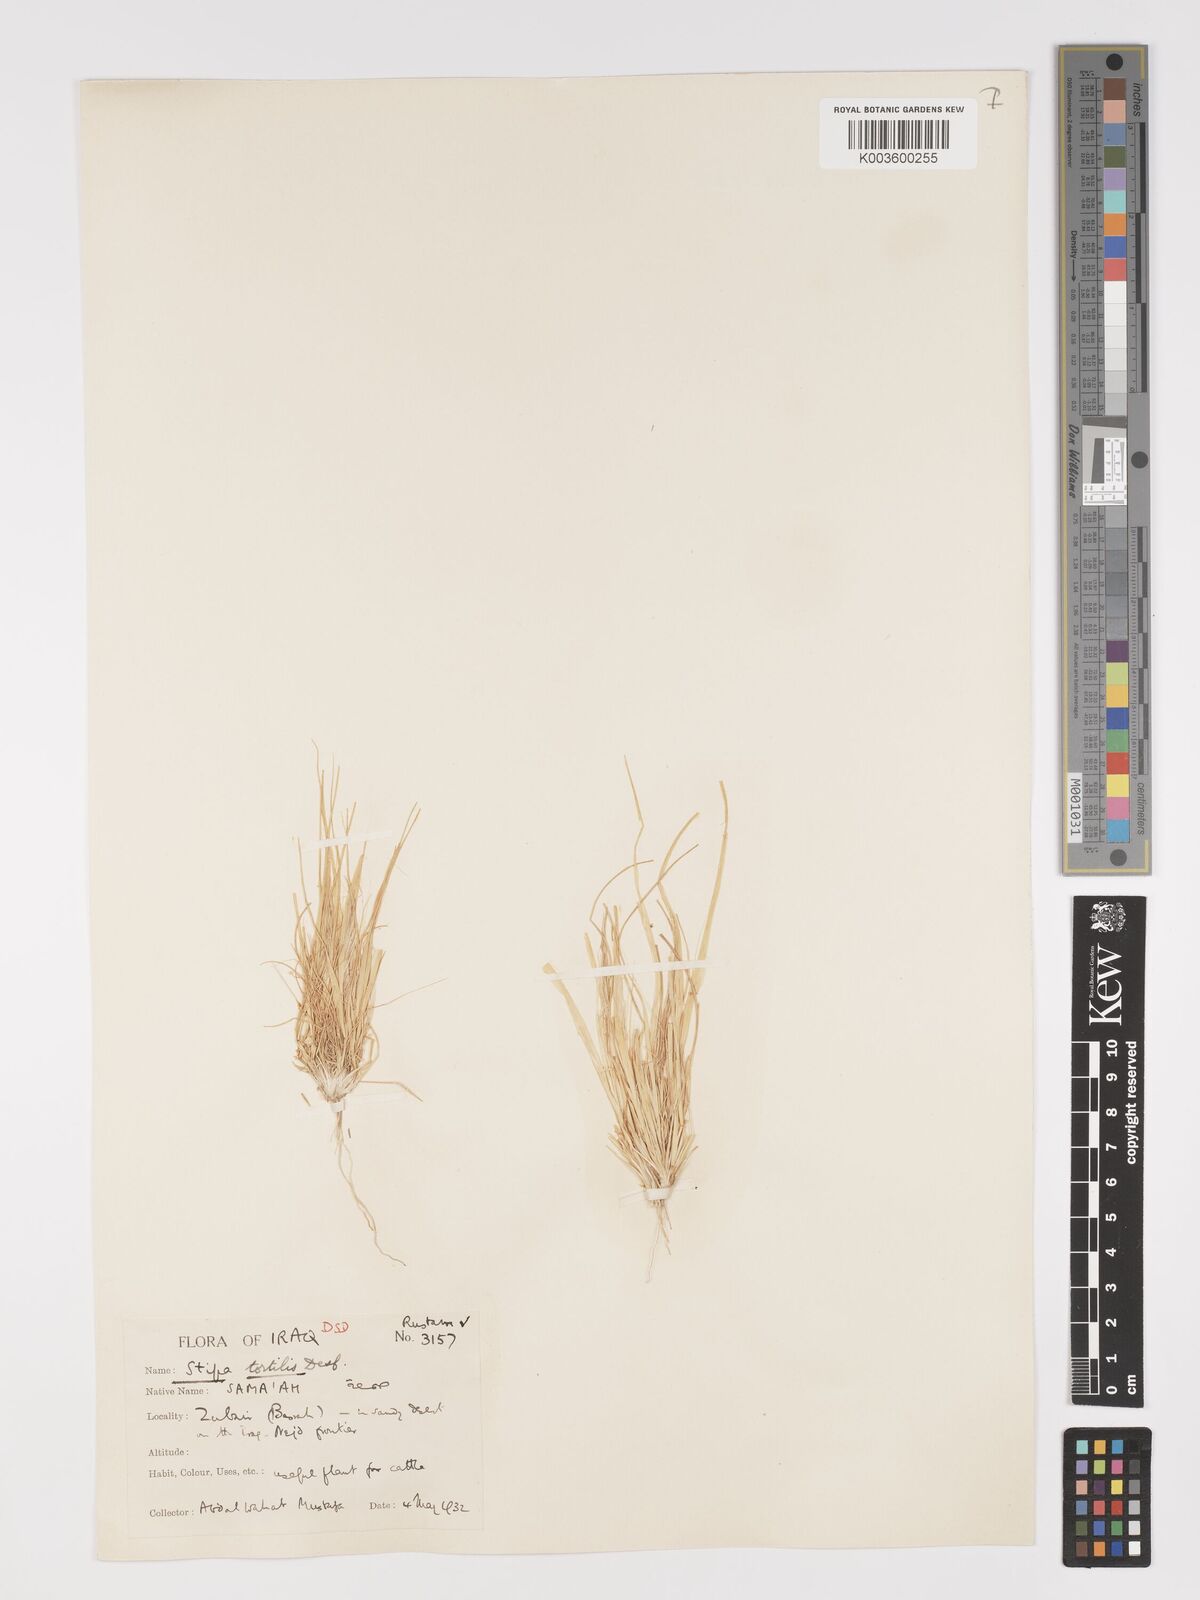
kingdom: Plantae
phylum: Tracheophyta
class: Liliopsida
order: Poales
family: Poaceae
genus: Stipellula
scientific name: Stipellula capensis
